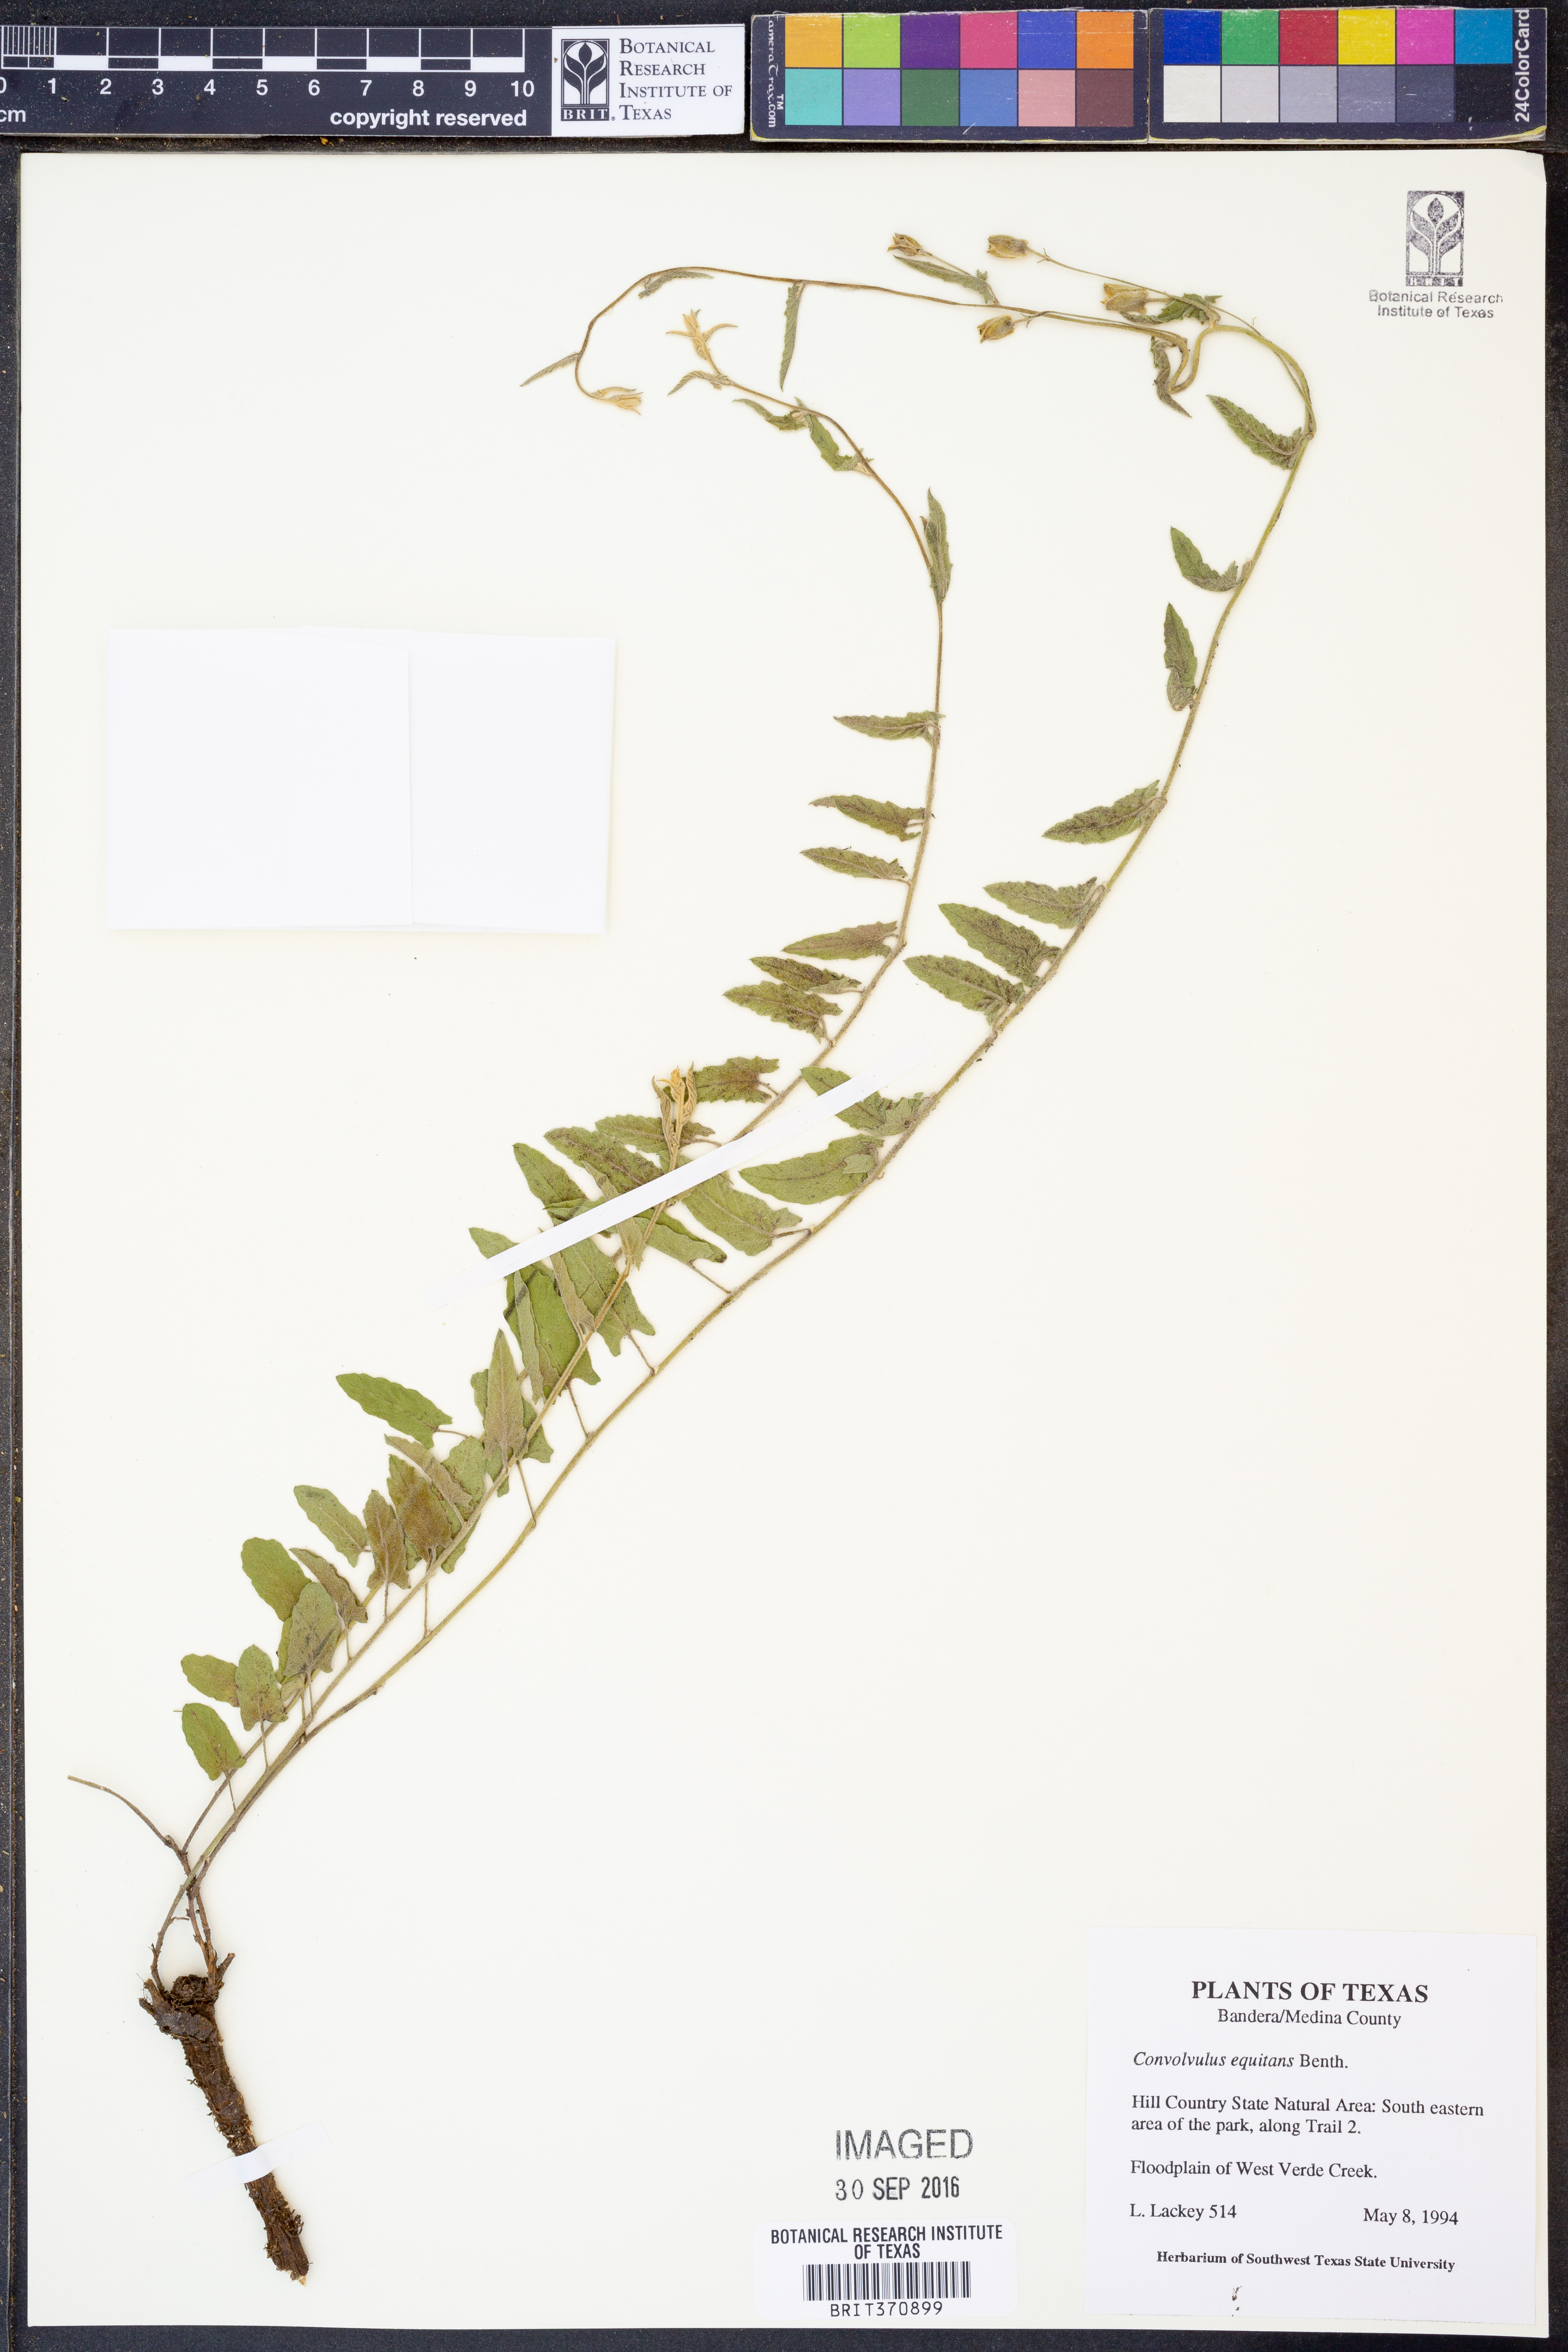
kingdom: Plantae
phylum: Tracheophyta
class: Magnoliopsida
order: Solanales
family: Convolvulaceae
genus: Convolvulus
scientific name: Convolvulus equitans
